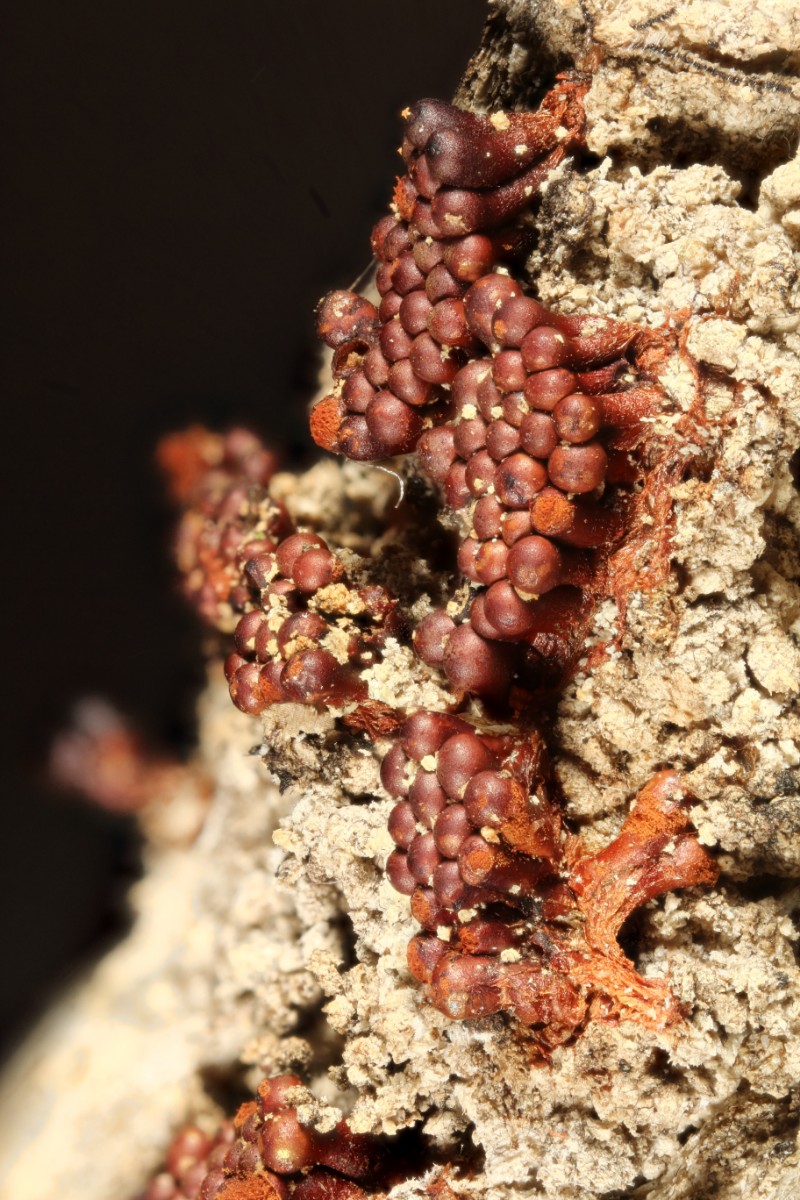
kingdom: Protozoa
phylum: Mycetozoa
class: Myxomycetes
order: Trichiales
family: Trichiaceae
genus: Metatrichia
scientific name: Metatrichia vesparia
